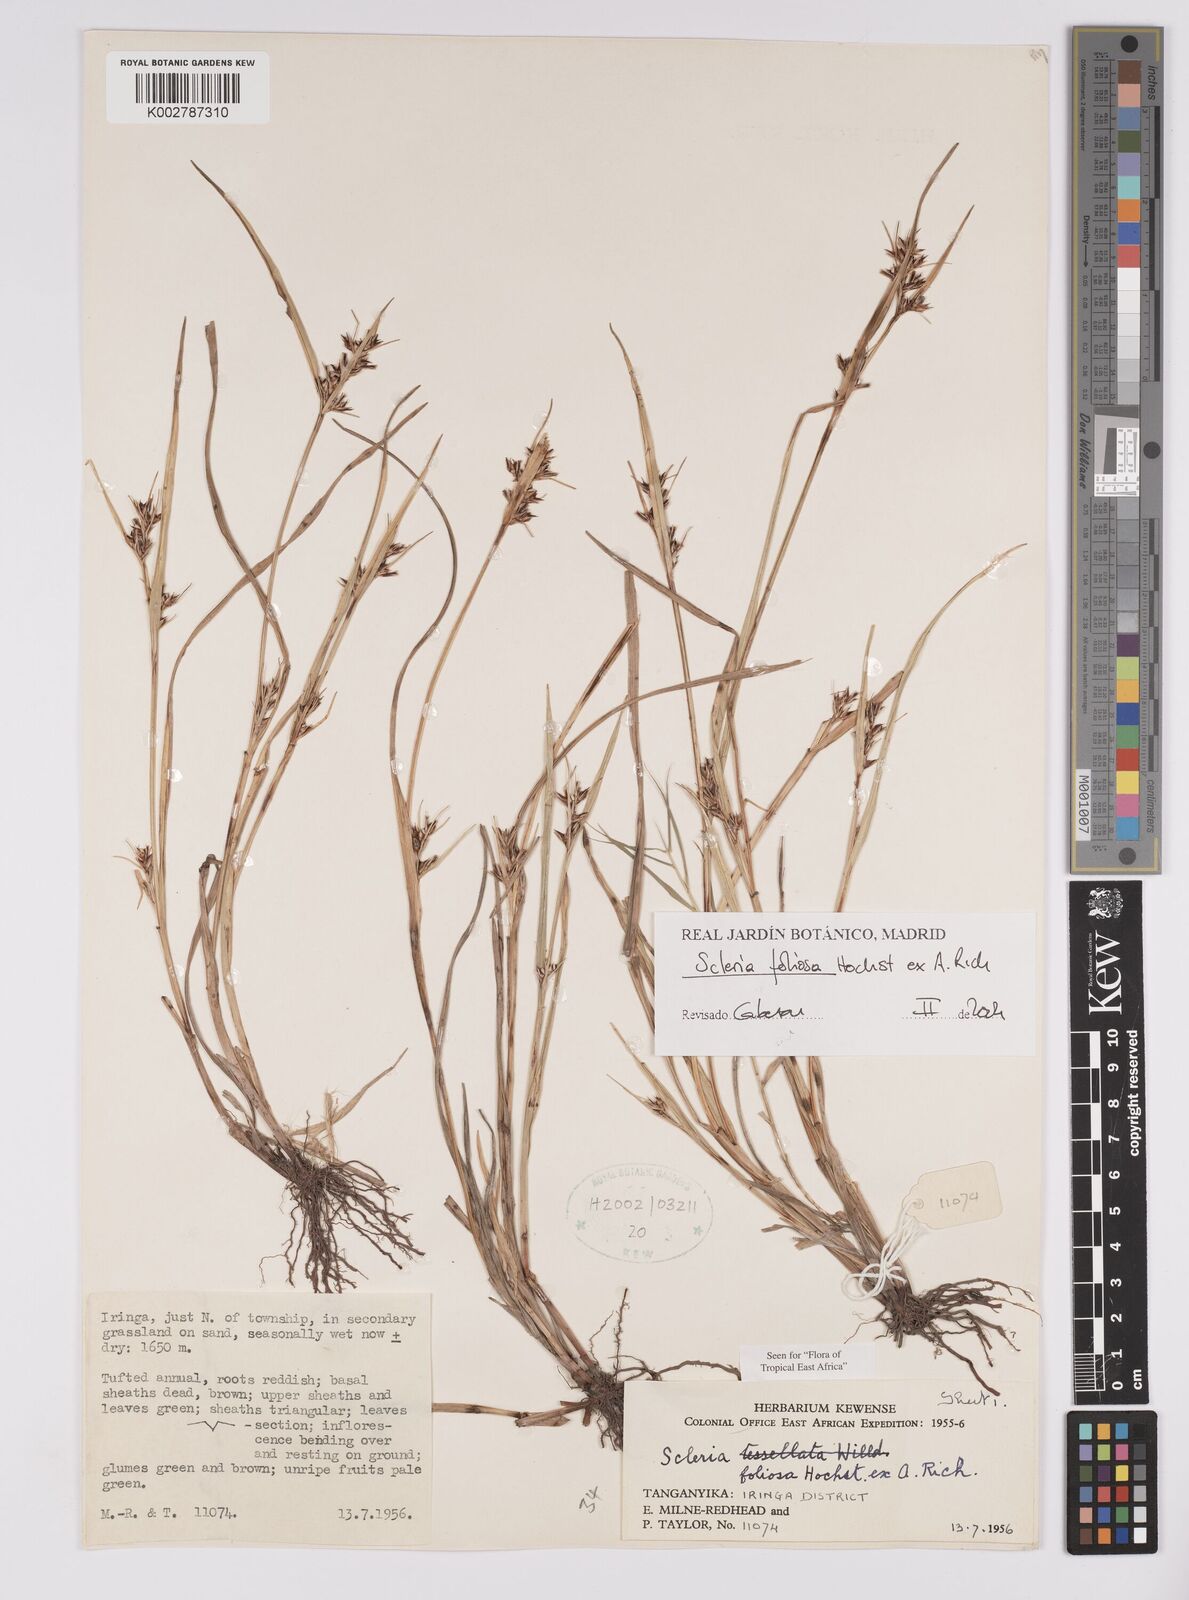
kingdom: Plantae
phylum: Tracheophyta
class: Liliopsida
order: Poales
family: Cyperaceae
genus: Scleria
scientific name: Scleria foliosa
